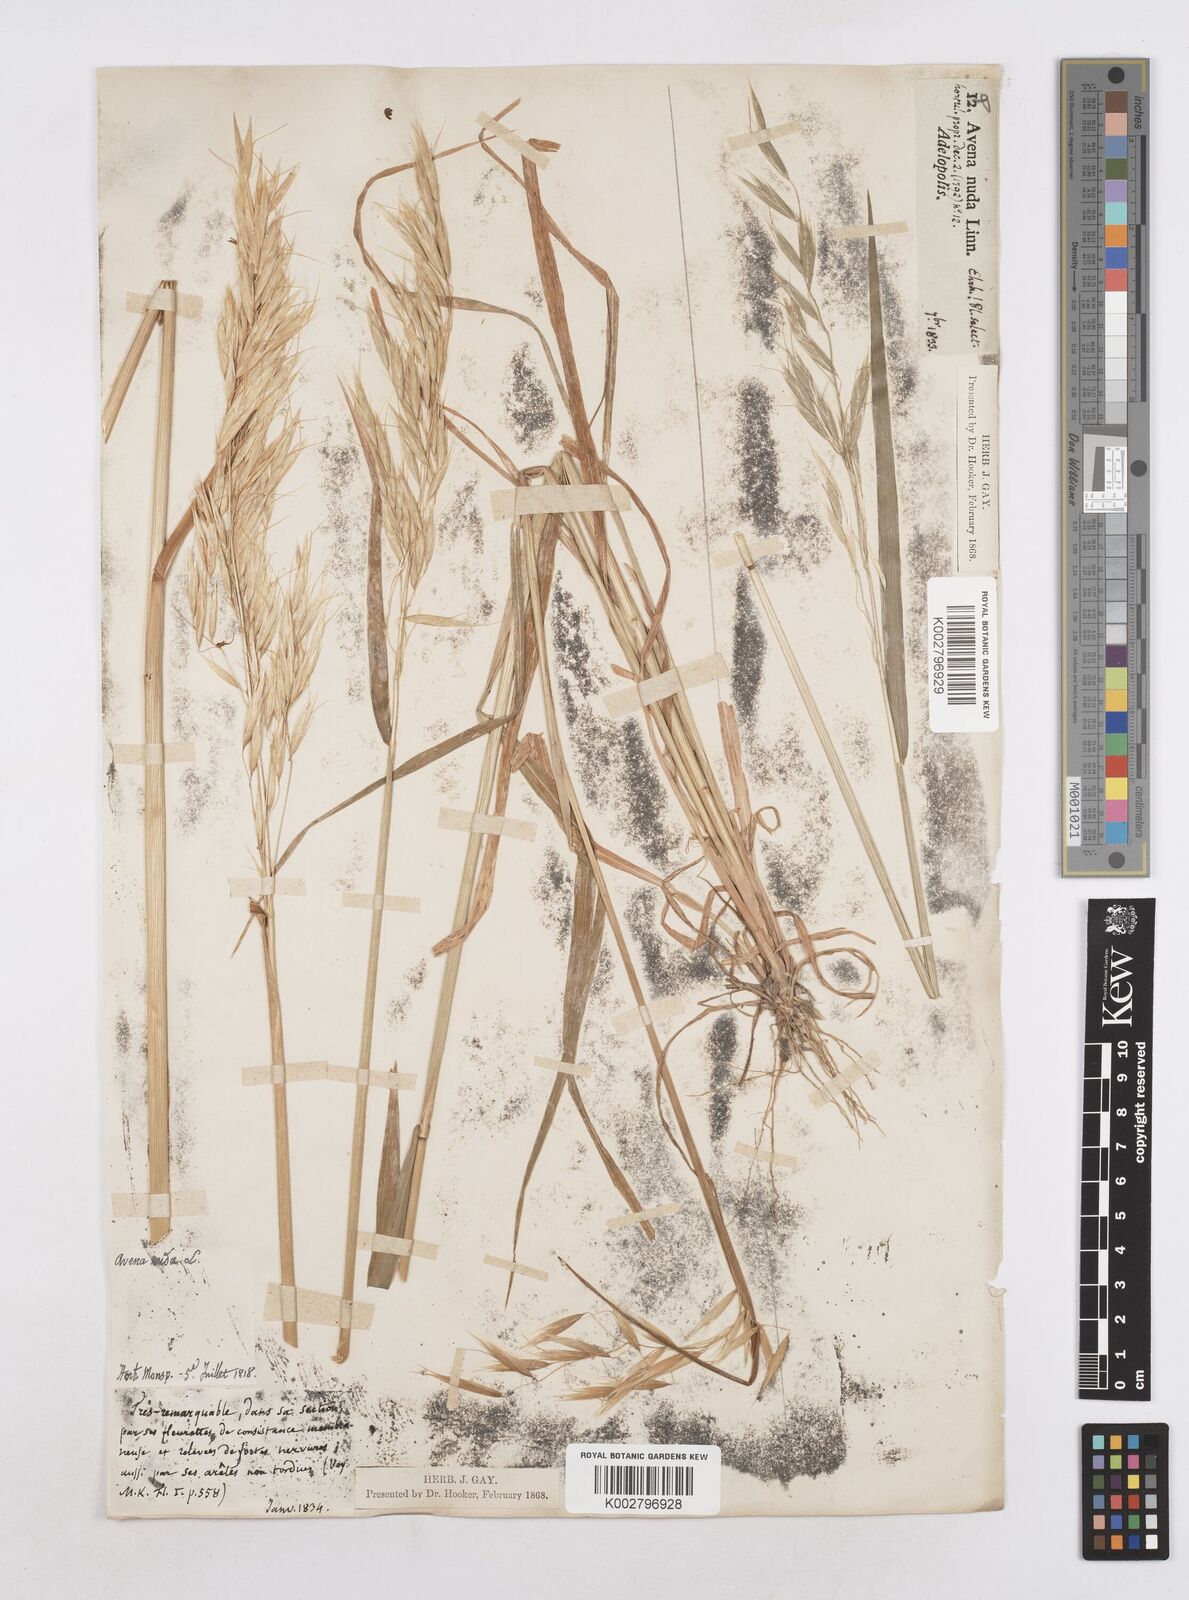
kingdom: Plantae
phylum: Tracheophyta
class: Liliopsida
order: Poales
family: Poaceae
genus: Avena
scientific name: Avena nuda
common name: Naked oat
